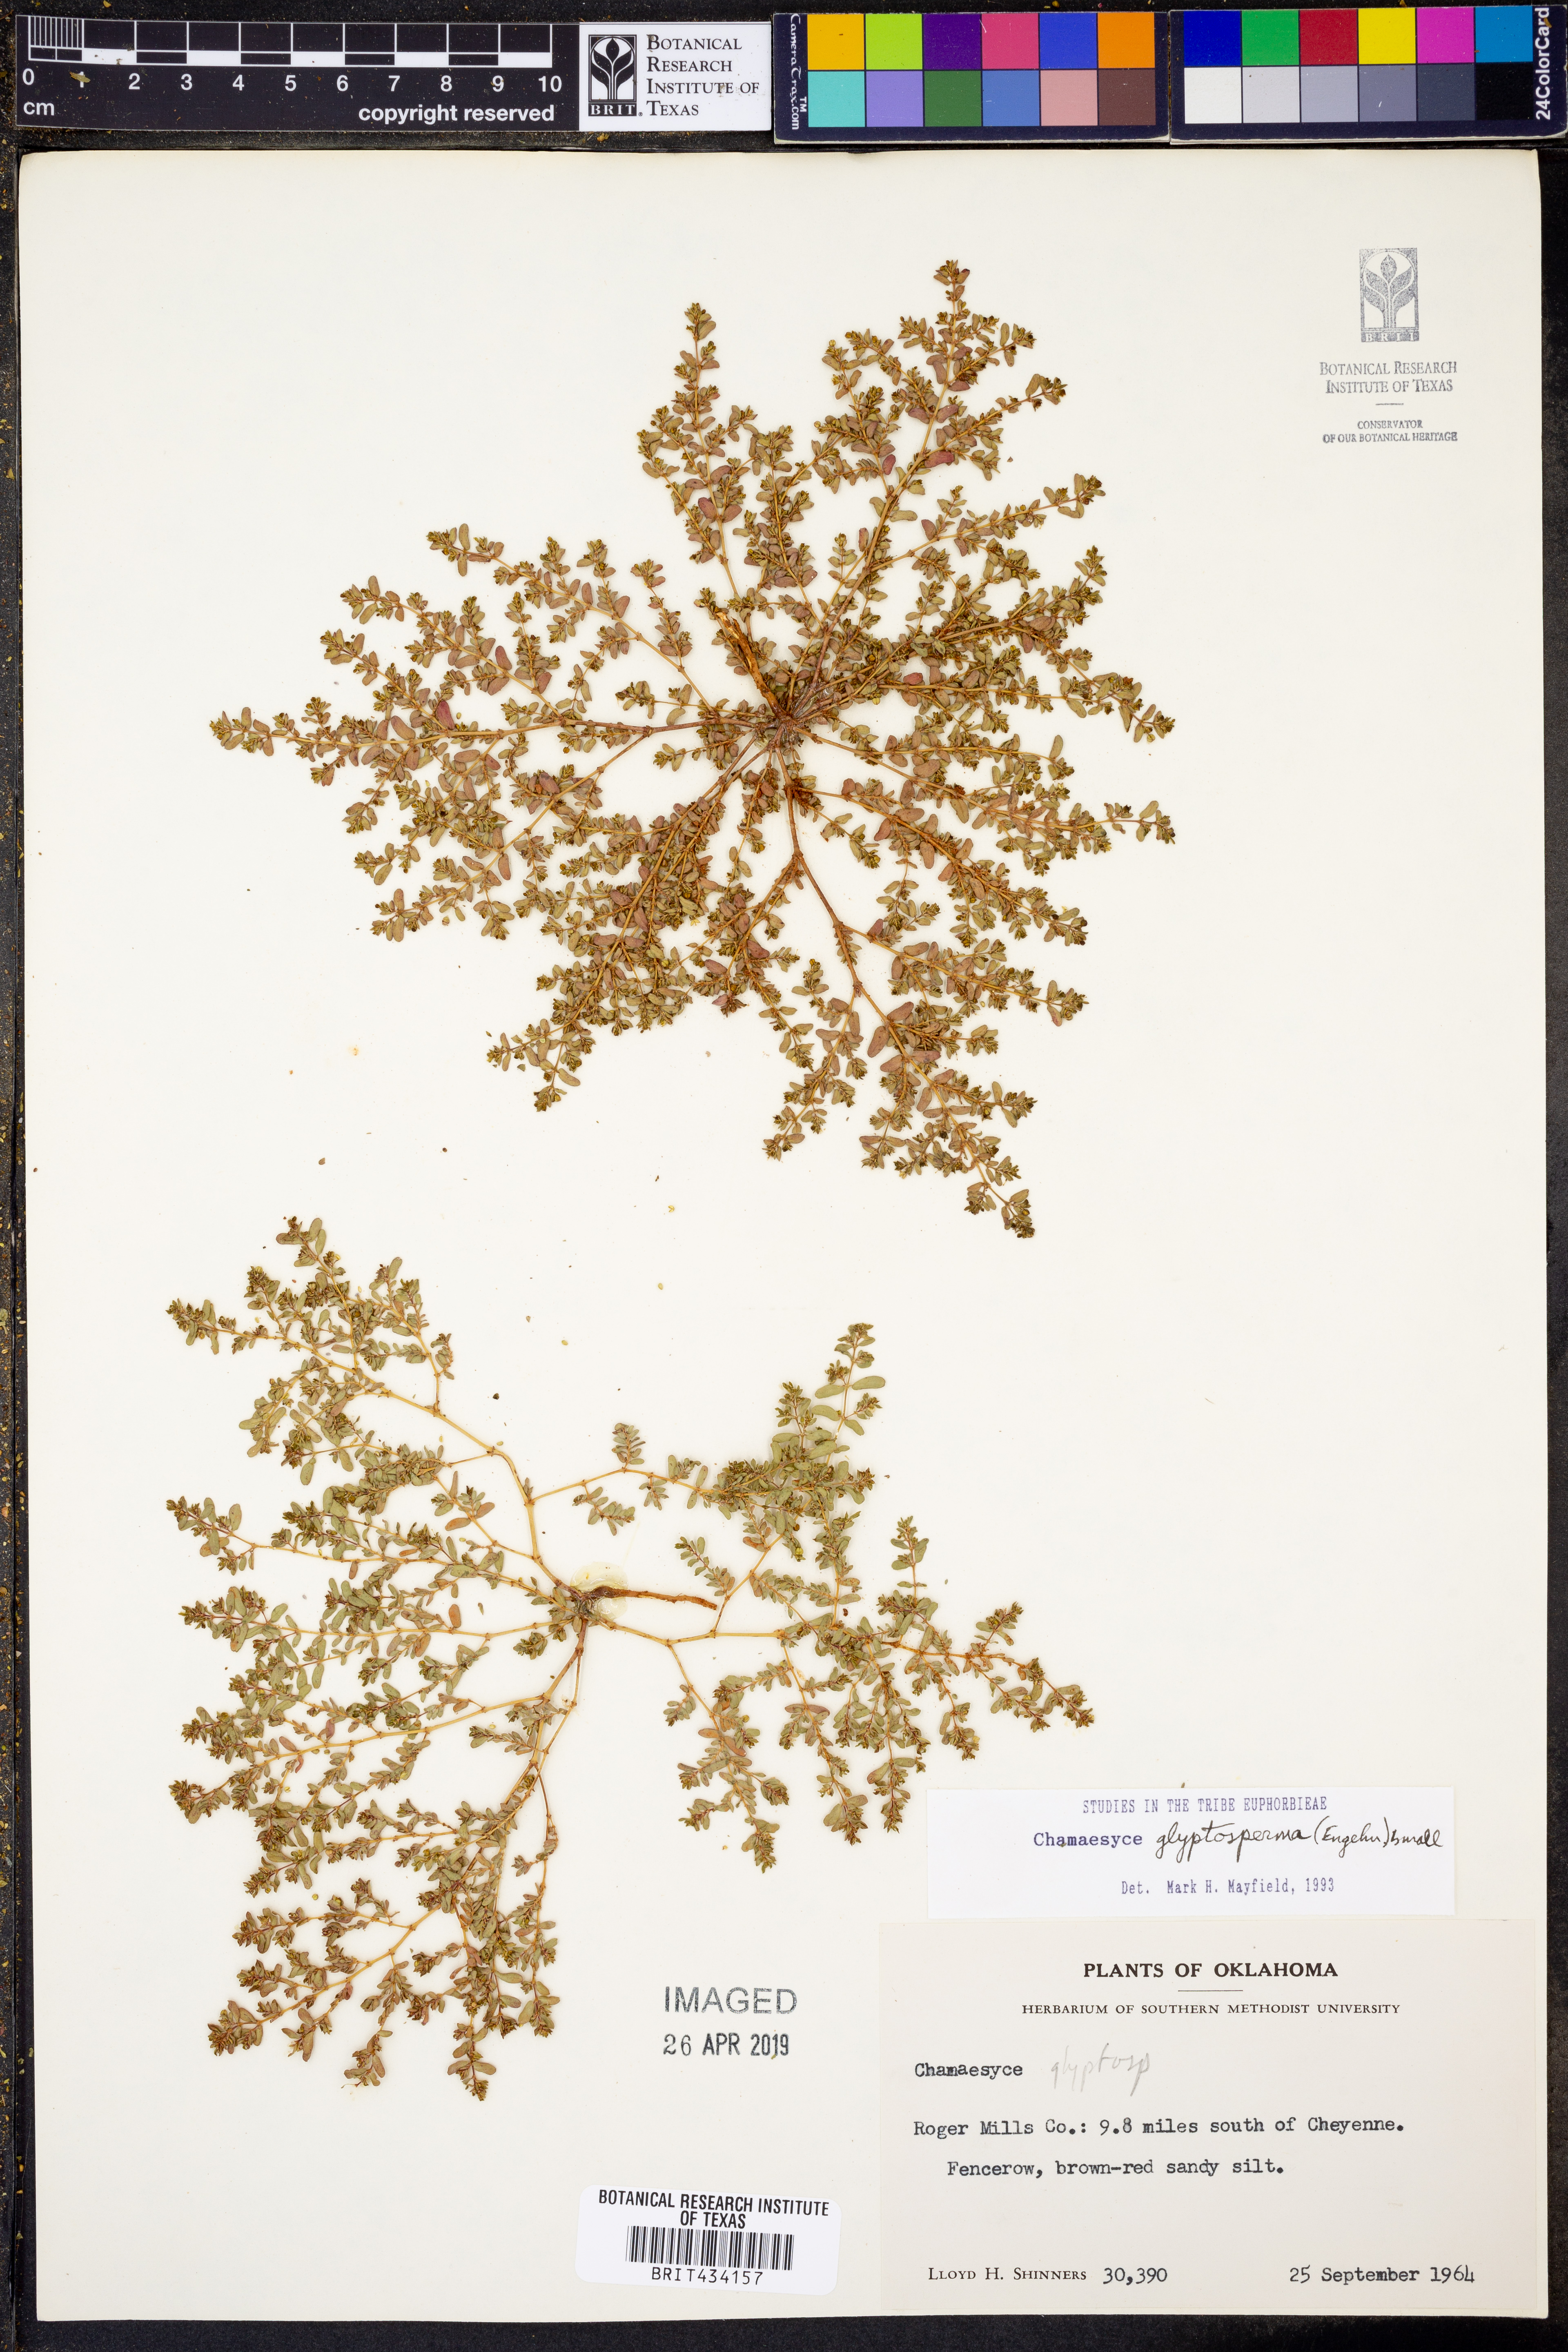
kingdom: Plantae
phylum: Tracheophyta
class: Magnoliopsida
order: Malpighiales
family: Euphorbiaceae
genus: Euphorbia
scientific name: Euphorbia glyptosperma
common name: Corrugate-seeded spurge
